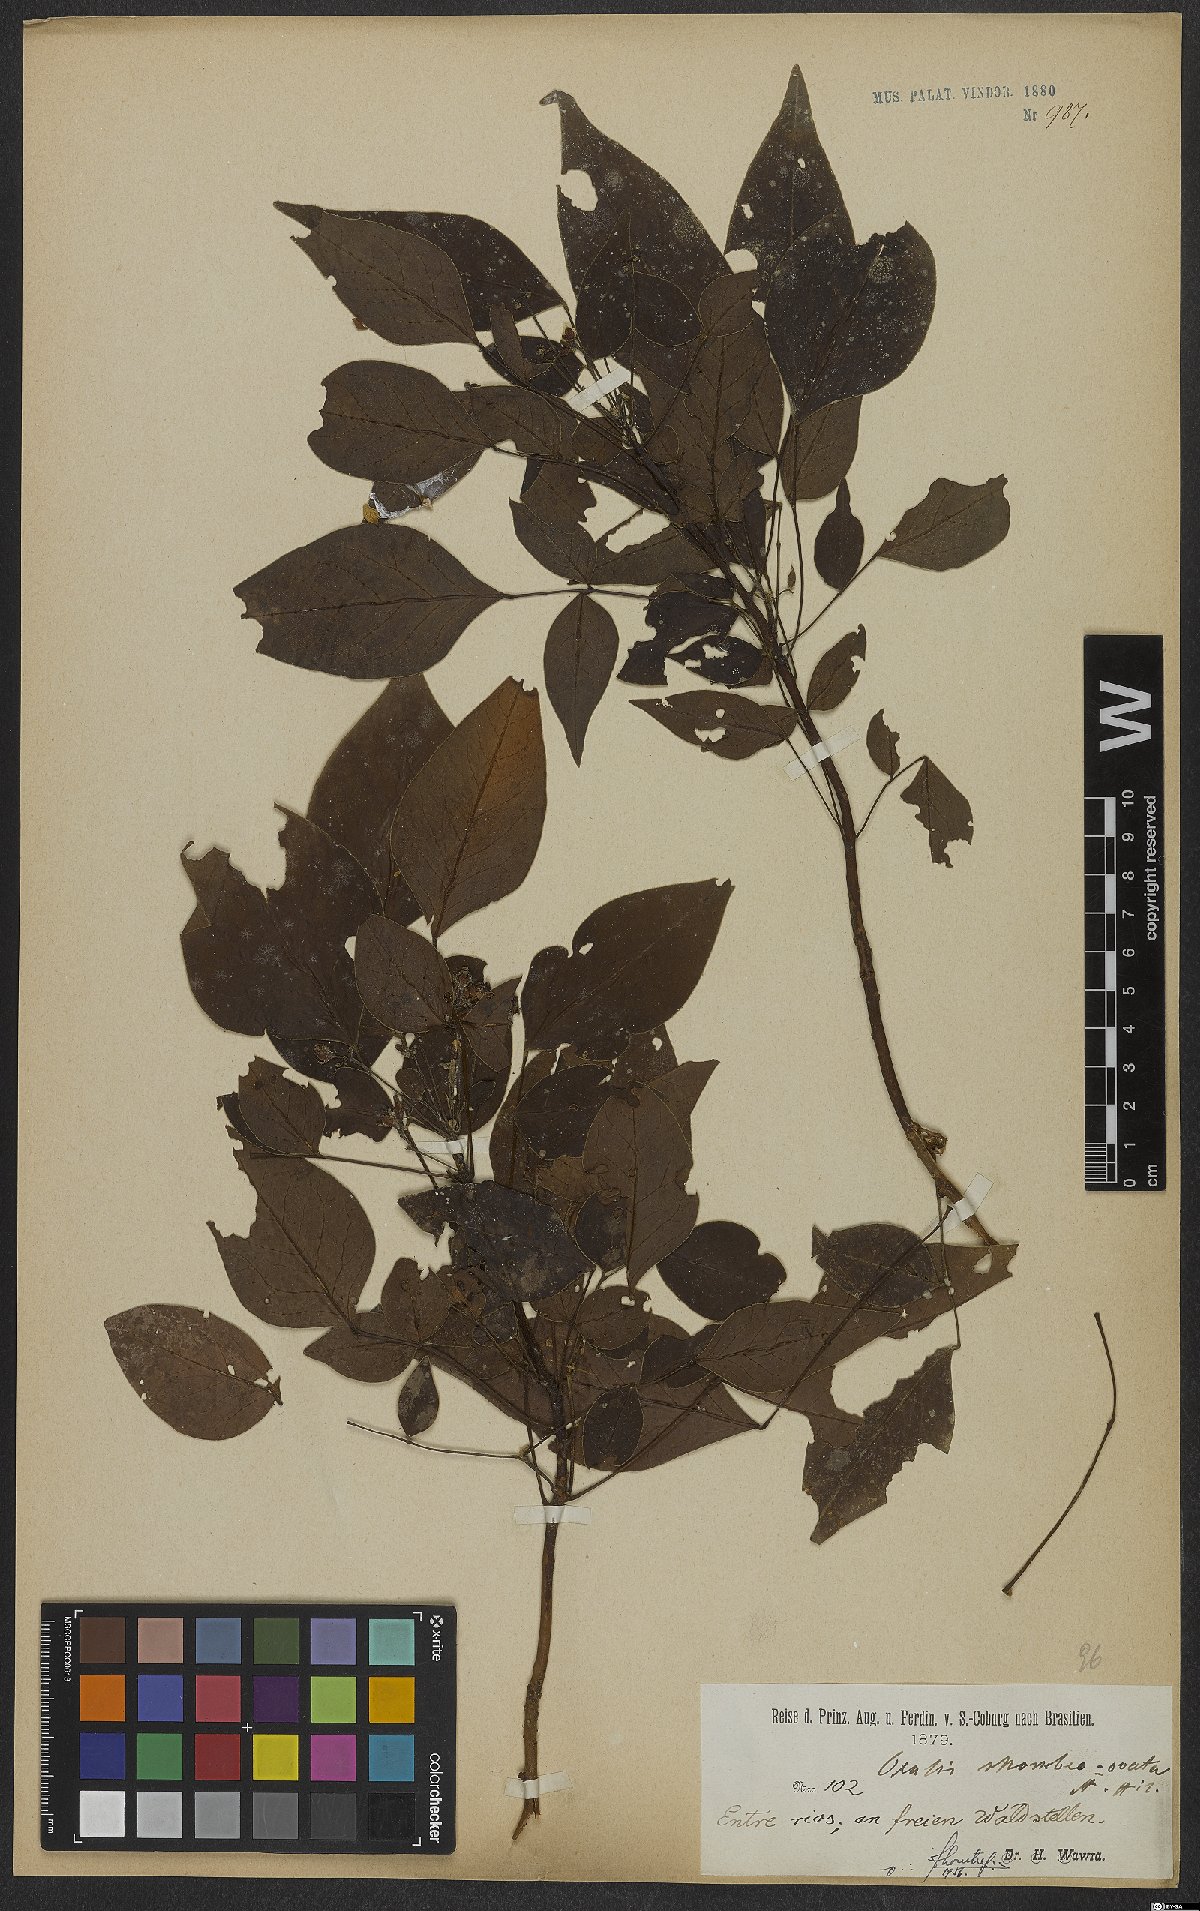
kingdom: Plantae
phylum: Tracheophyta
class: Magnoliopsida
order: Oxalidales
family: Oxalidaceae
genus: Oxalis
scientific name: Oxalis rhombeo-ovata
